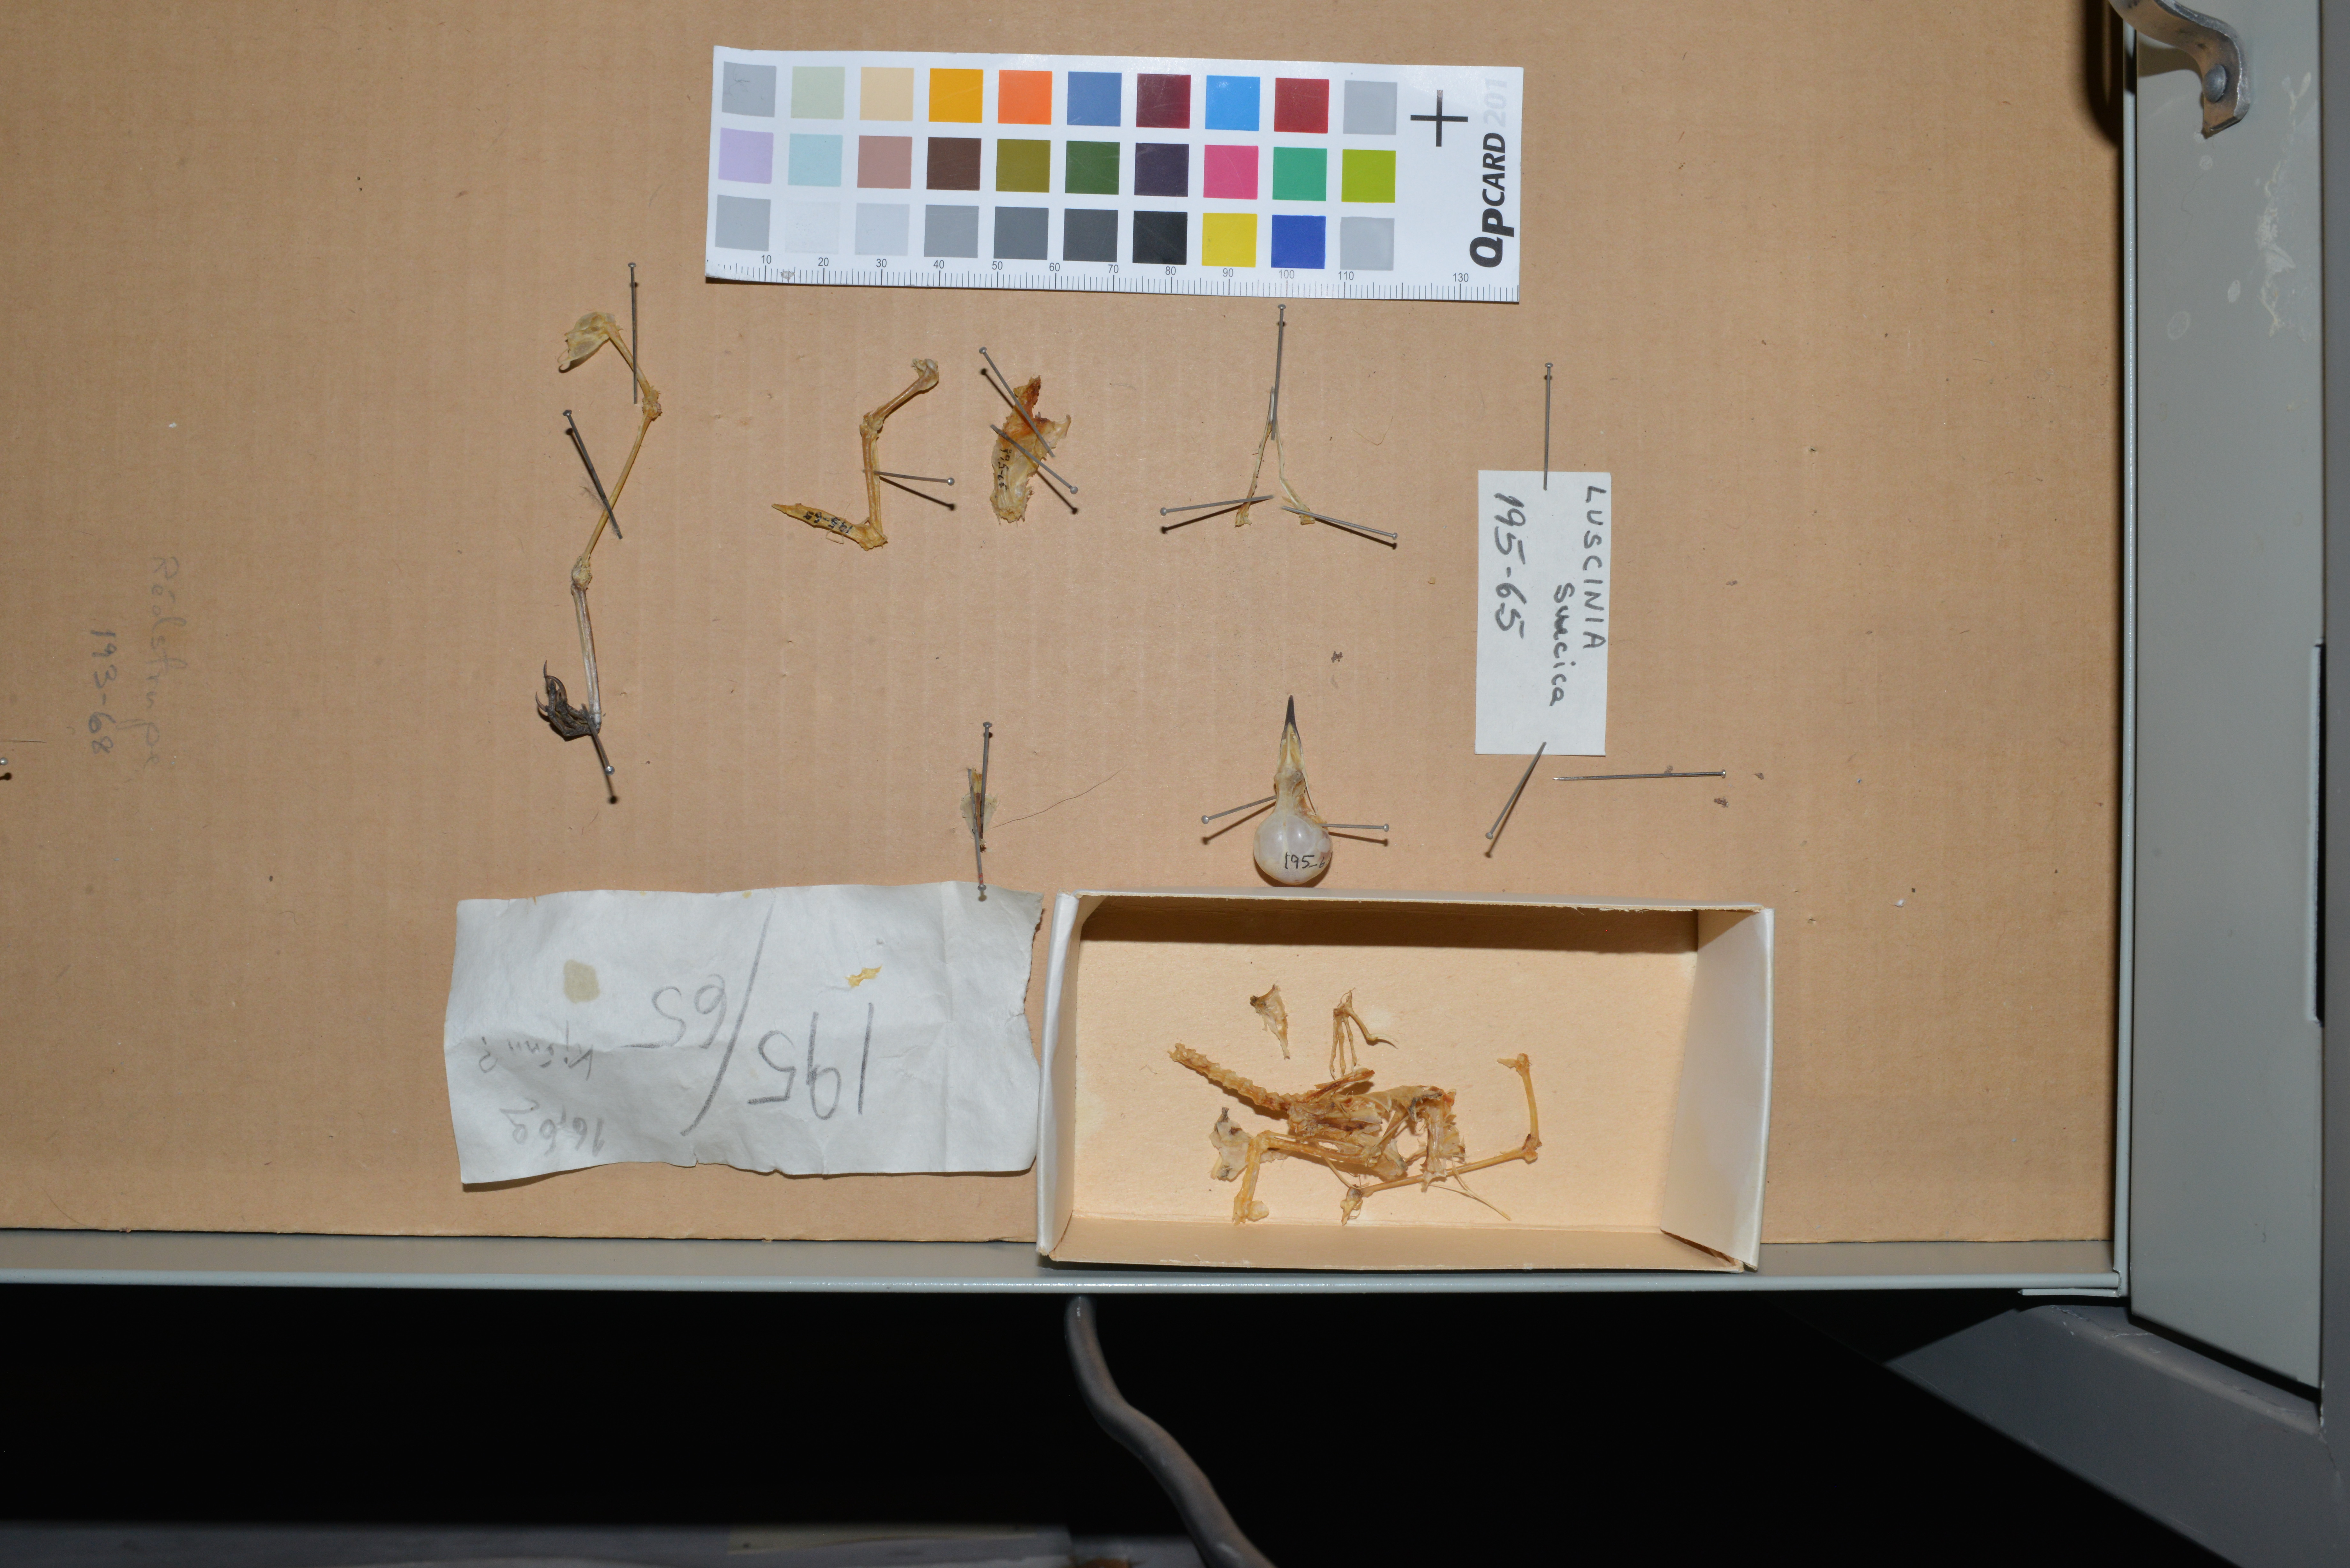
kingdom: Animalia
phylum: Chordata
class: Aves
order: Passeriformes
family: Muscicapidae
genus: Luscinia
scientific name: Luscinia svecica
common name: Bluethroat
